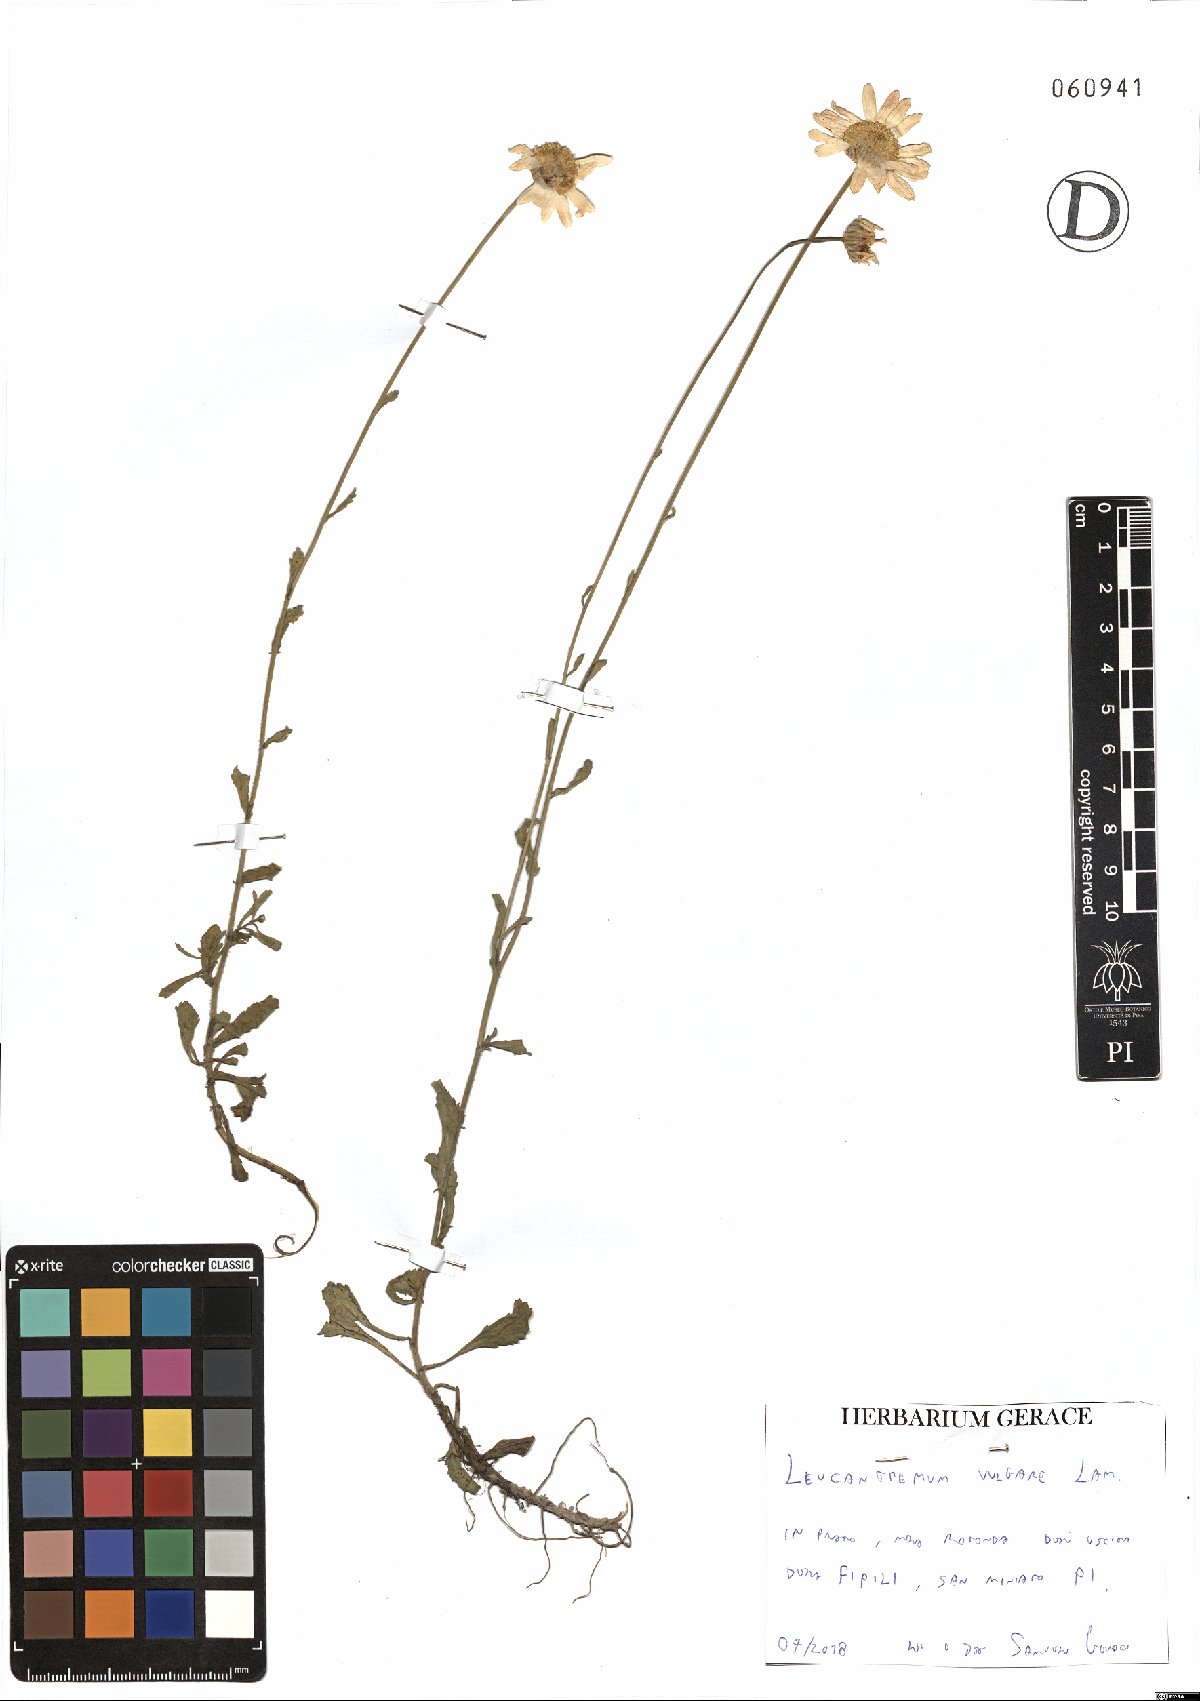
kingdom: Plantae
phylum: Tracheophyta
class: Magnoliopsida
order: Asterales
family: Asteraceae
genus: Leucanthemum
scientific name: Leucanthemum vulgare
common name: Oxeye daisy
